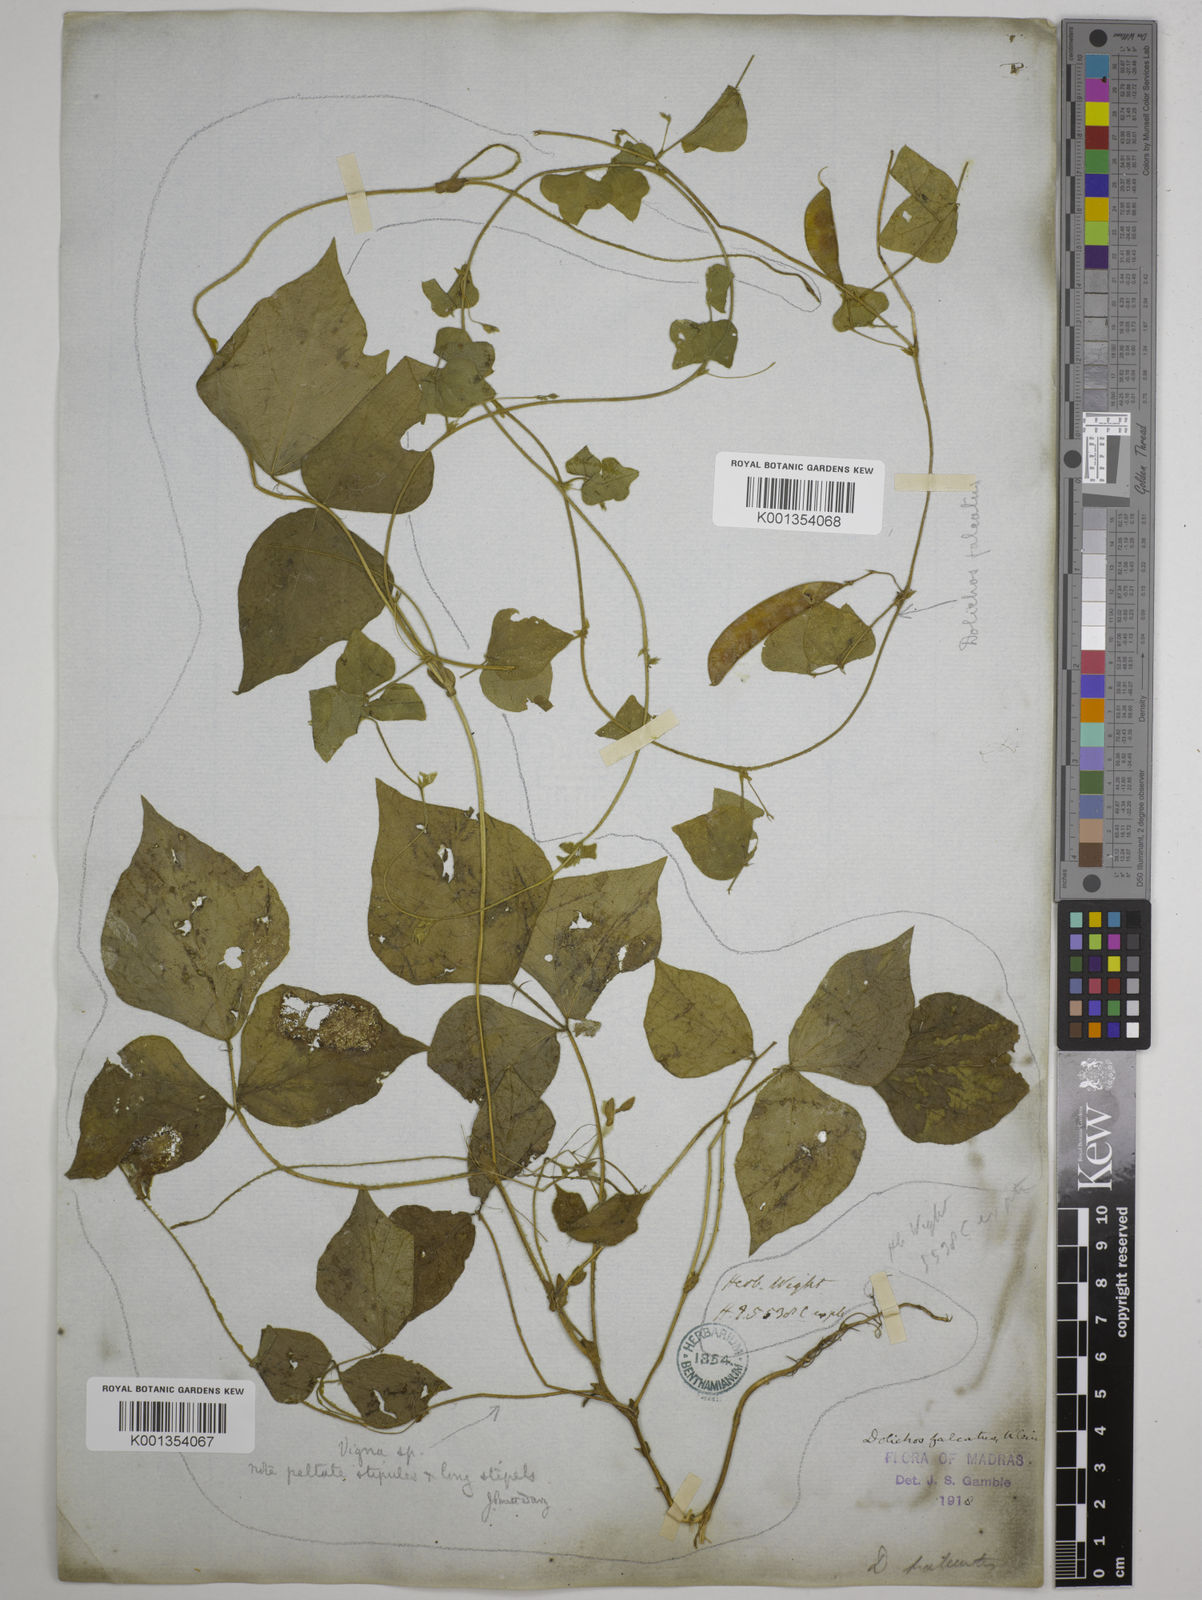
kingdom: Plantae
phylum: Tracheophyta
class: Magnoliopsida
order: Fabales
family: Fabaceae
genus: Dolichos
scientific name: Dolichos
